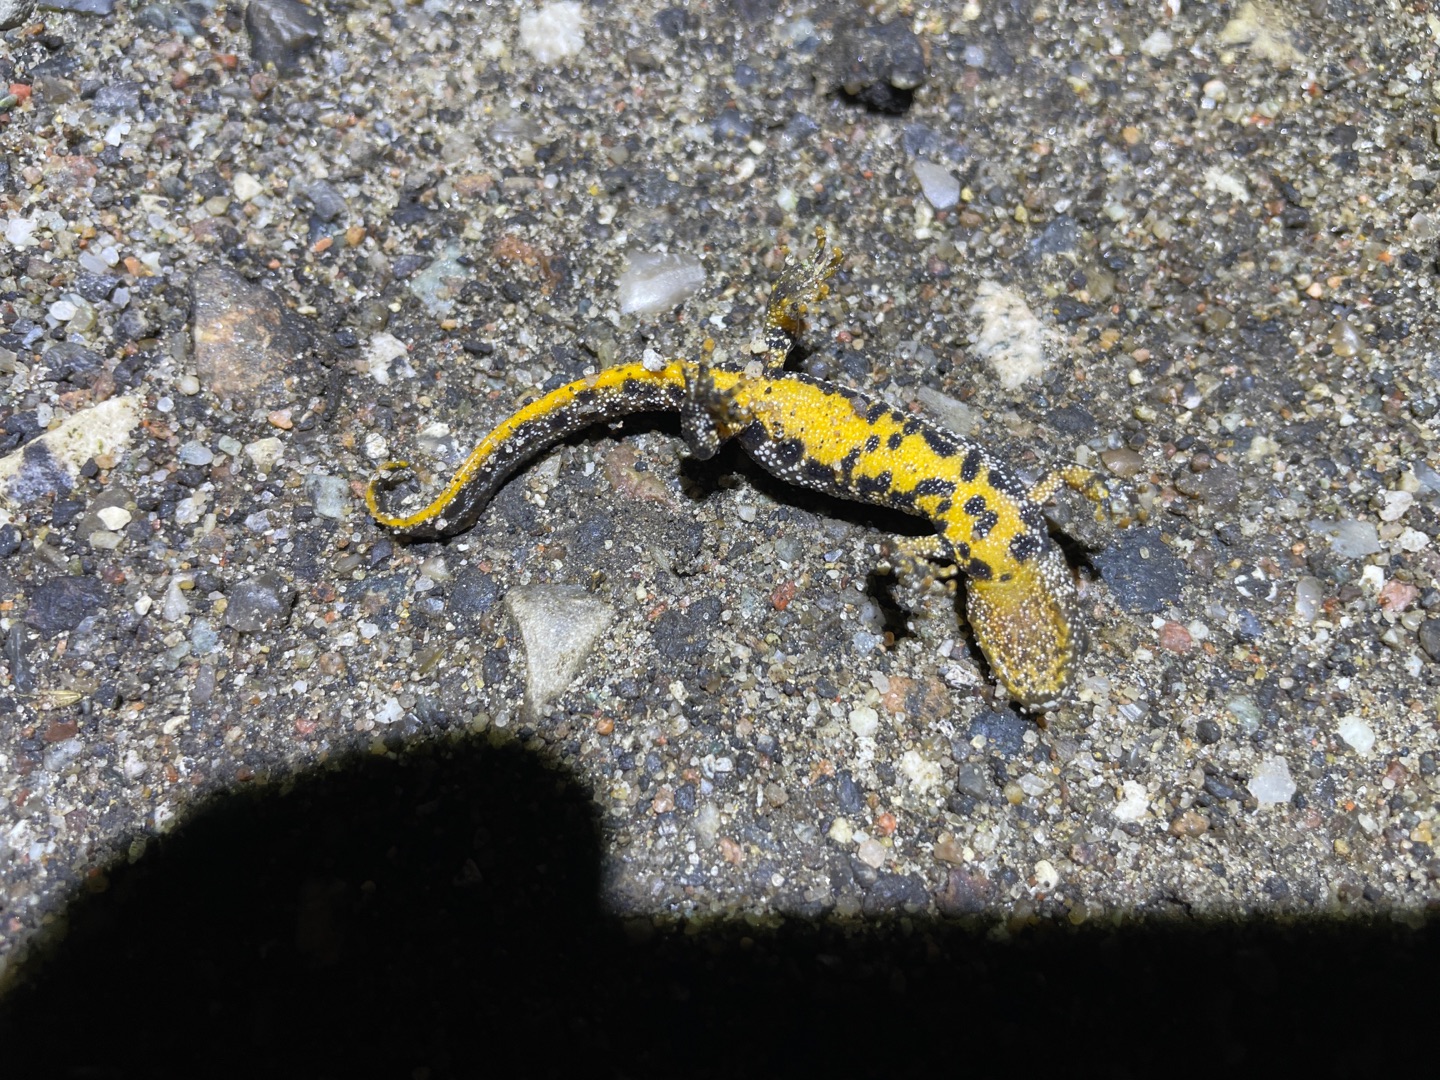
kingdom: Animalia
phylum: Chordata
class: Amphibia
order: Caudata
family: Salamandridae
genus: Triturus
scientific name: Triturus cristatus
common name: Stor vandsalamander
